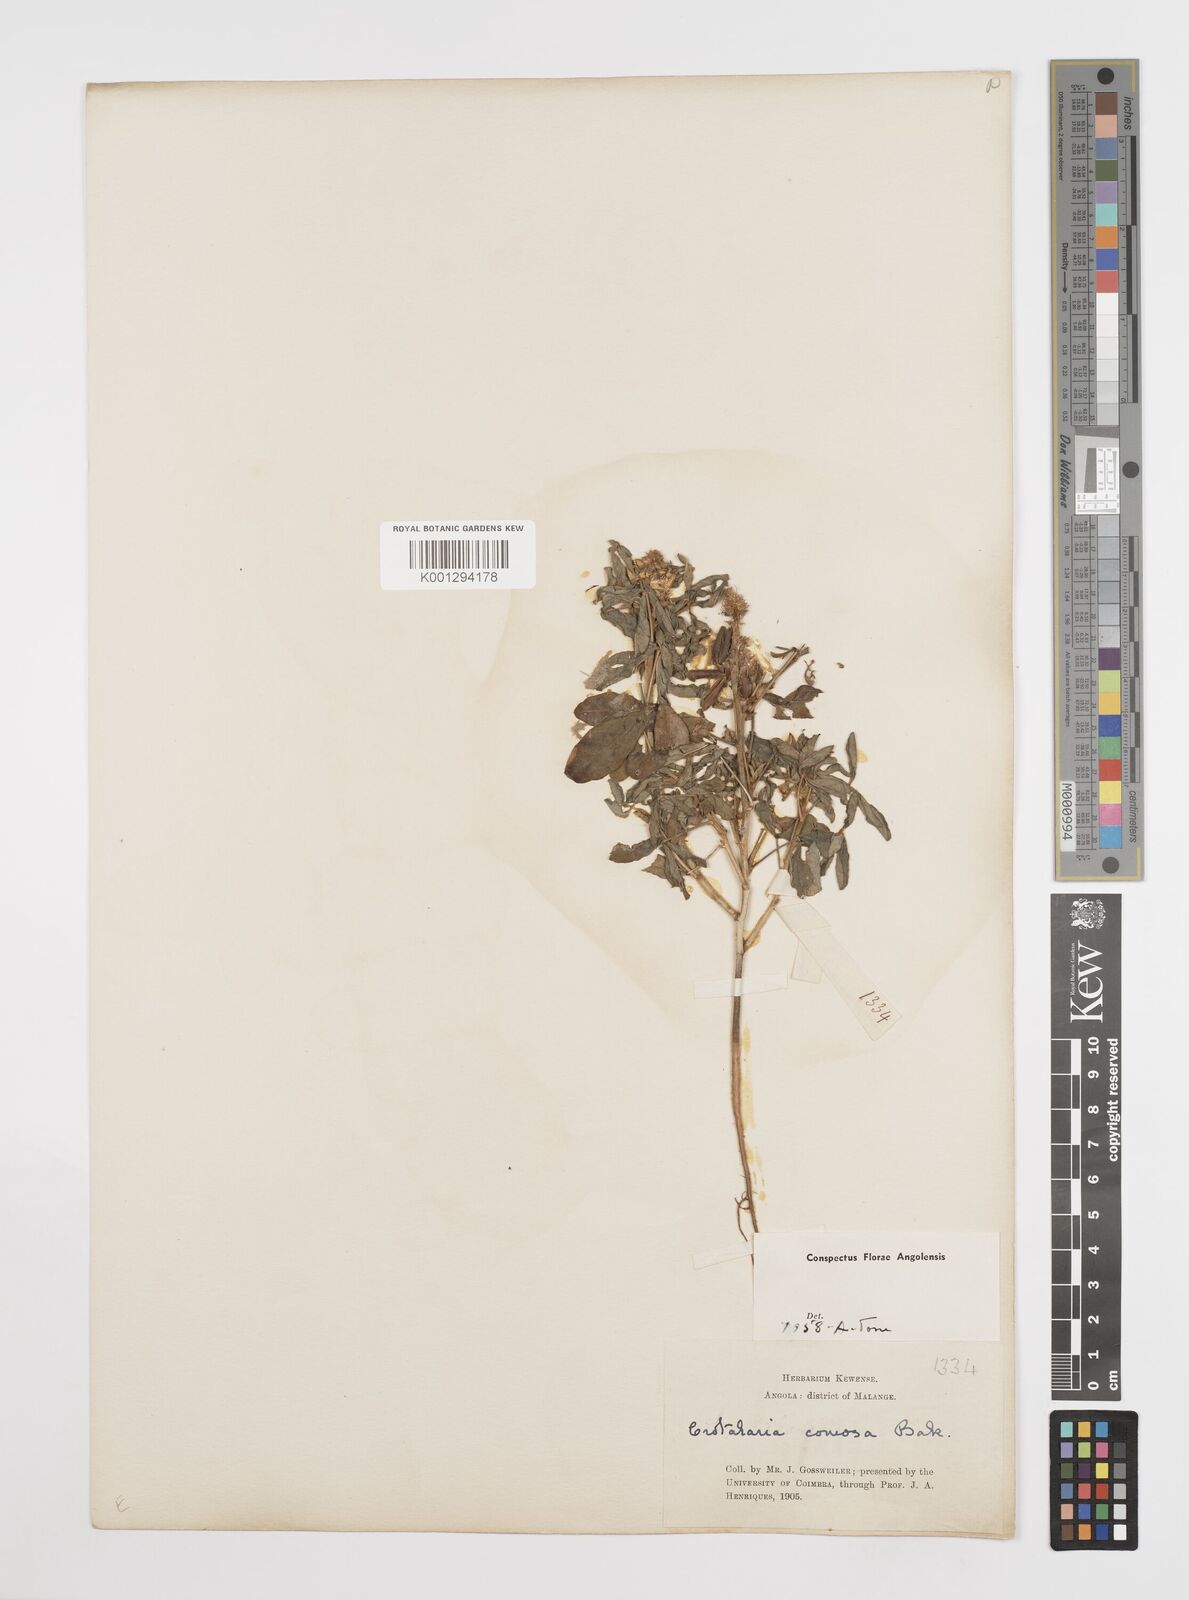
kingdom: Plantae
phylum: Tracheophyta
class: Magnoliopsida
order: Fabales
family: Fabaceae
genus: Crotalaria
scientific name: Crotalaria comosa
